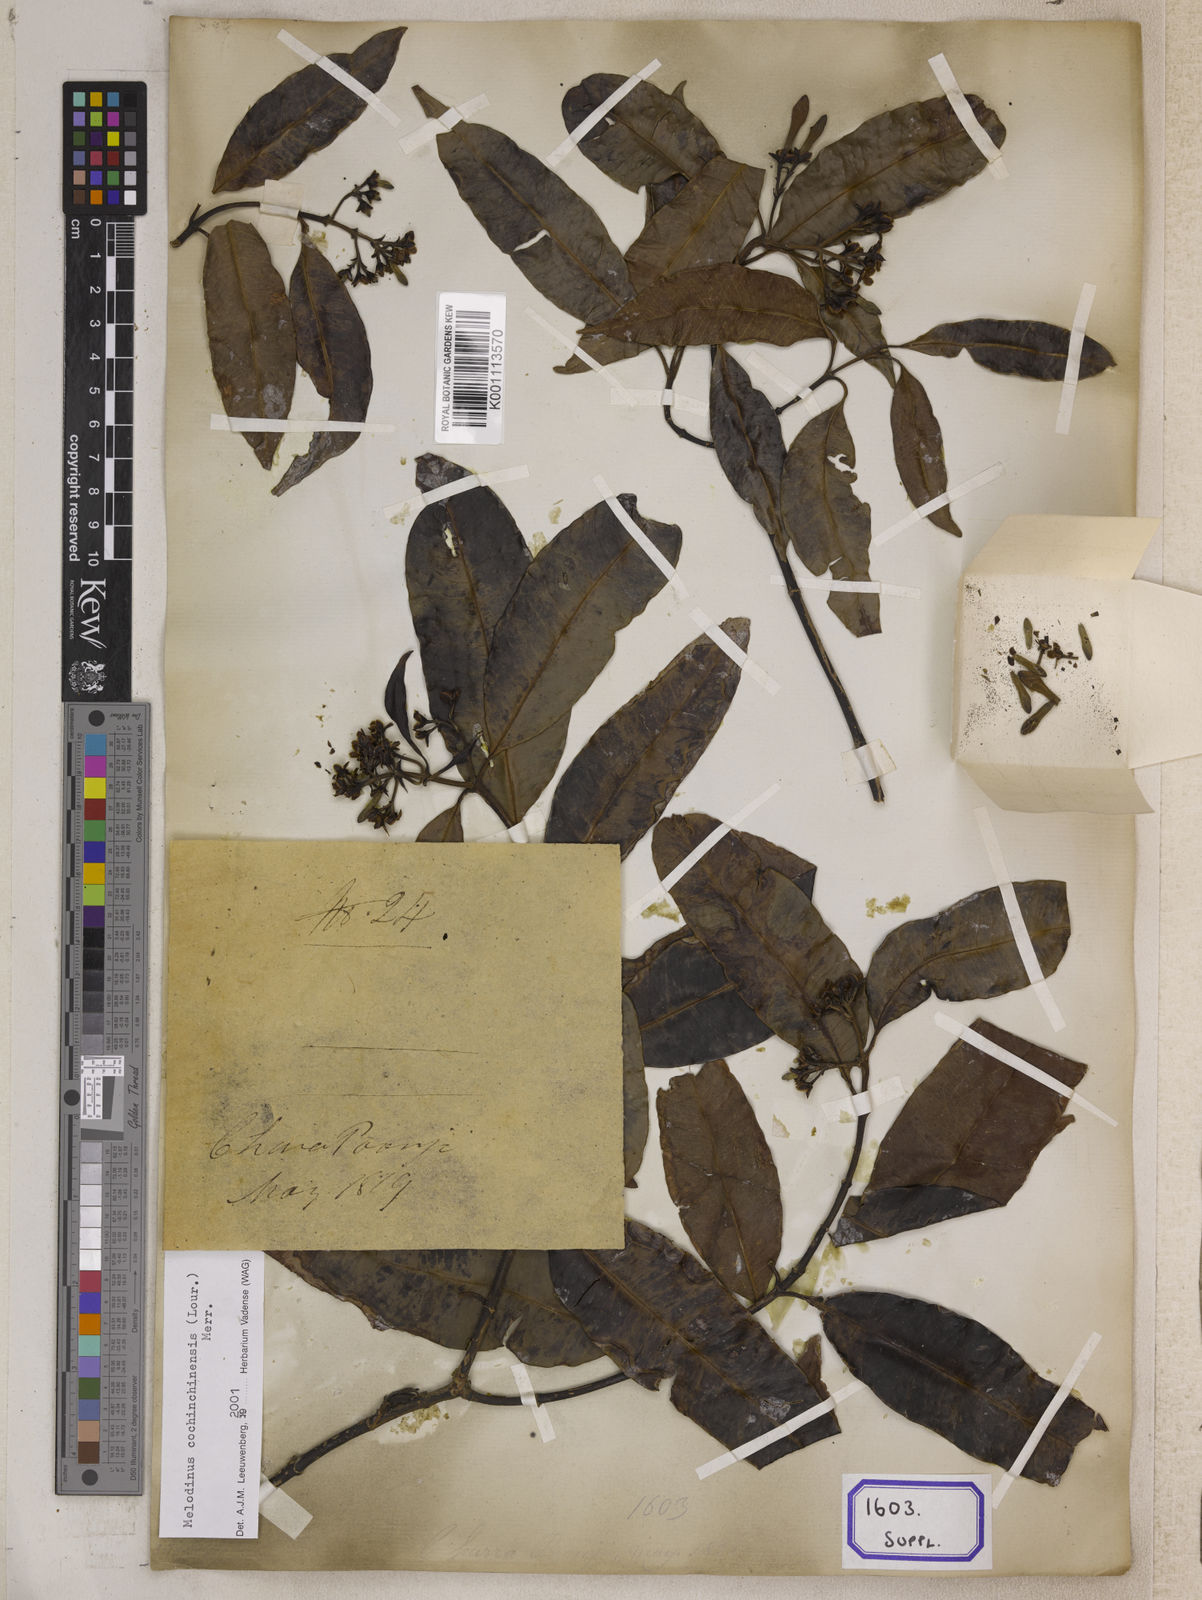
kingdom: Plantae
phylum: Tracheophyta
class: Magnoliopsida
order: Gentianales
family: Apocynaceae
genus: Melodinus
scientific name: Melodinus
